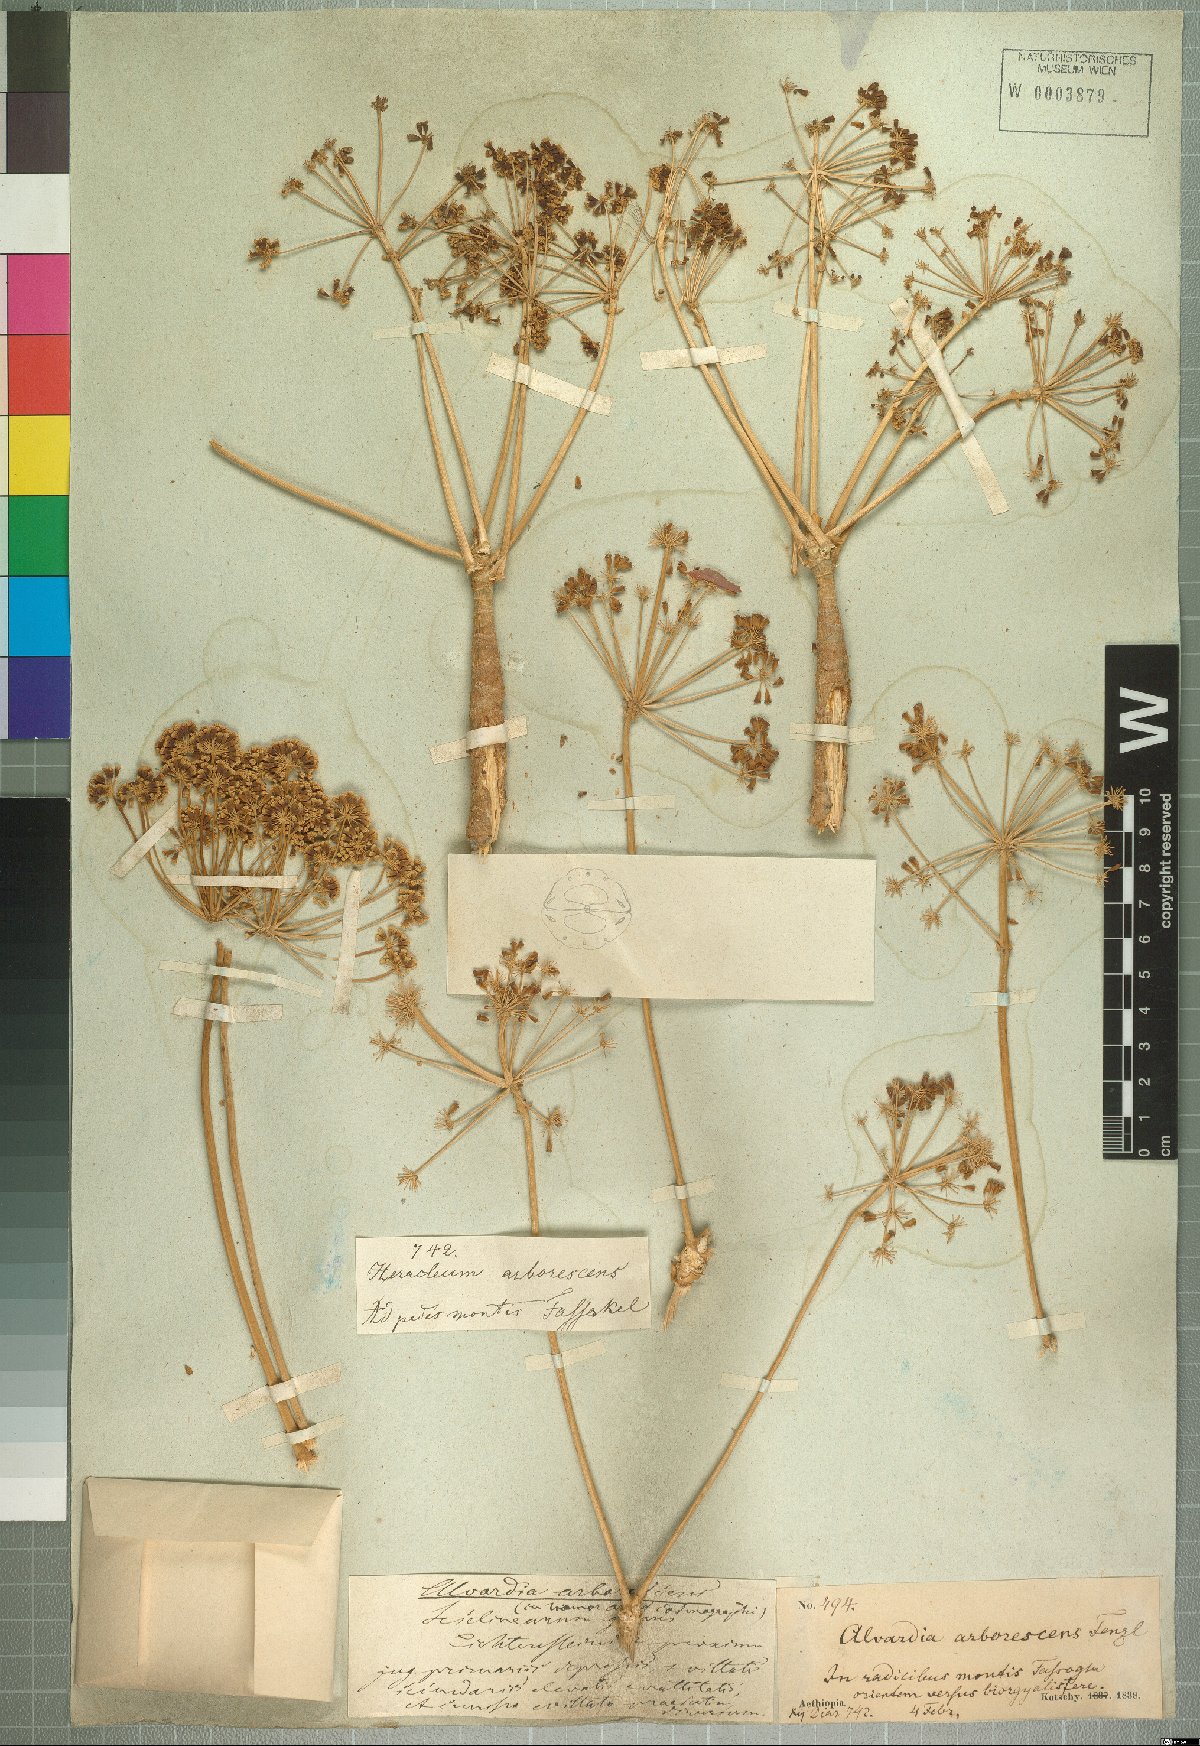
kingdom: Plantae
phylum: Tracheophyta
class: Magnoliopsida
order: Apiales
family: Apiaceae
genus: Steganotaenia
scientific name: Steganotaenia araliacea
